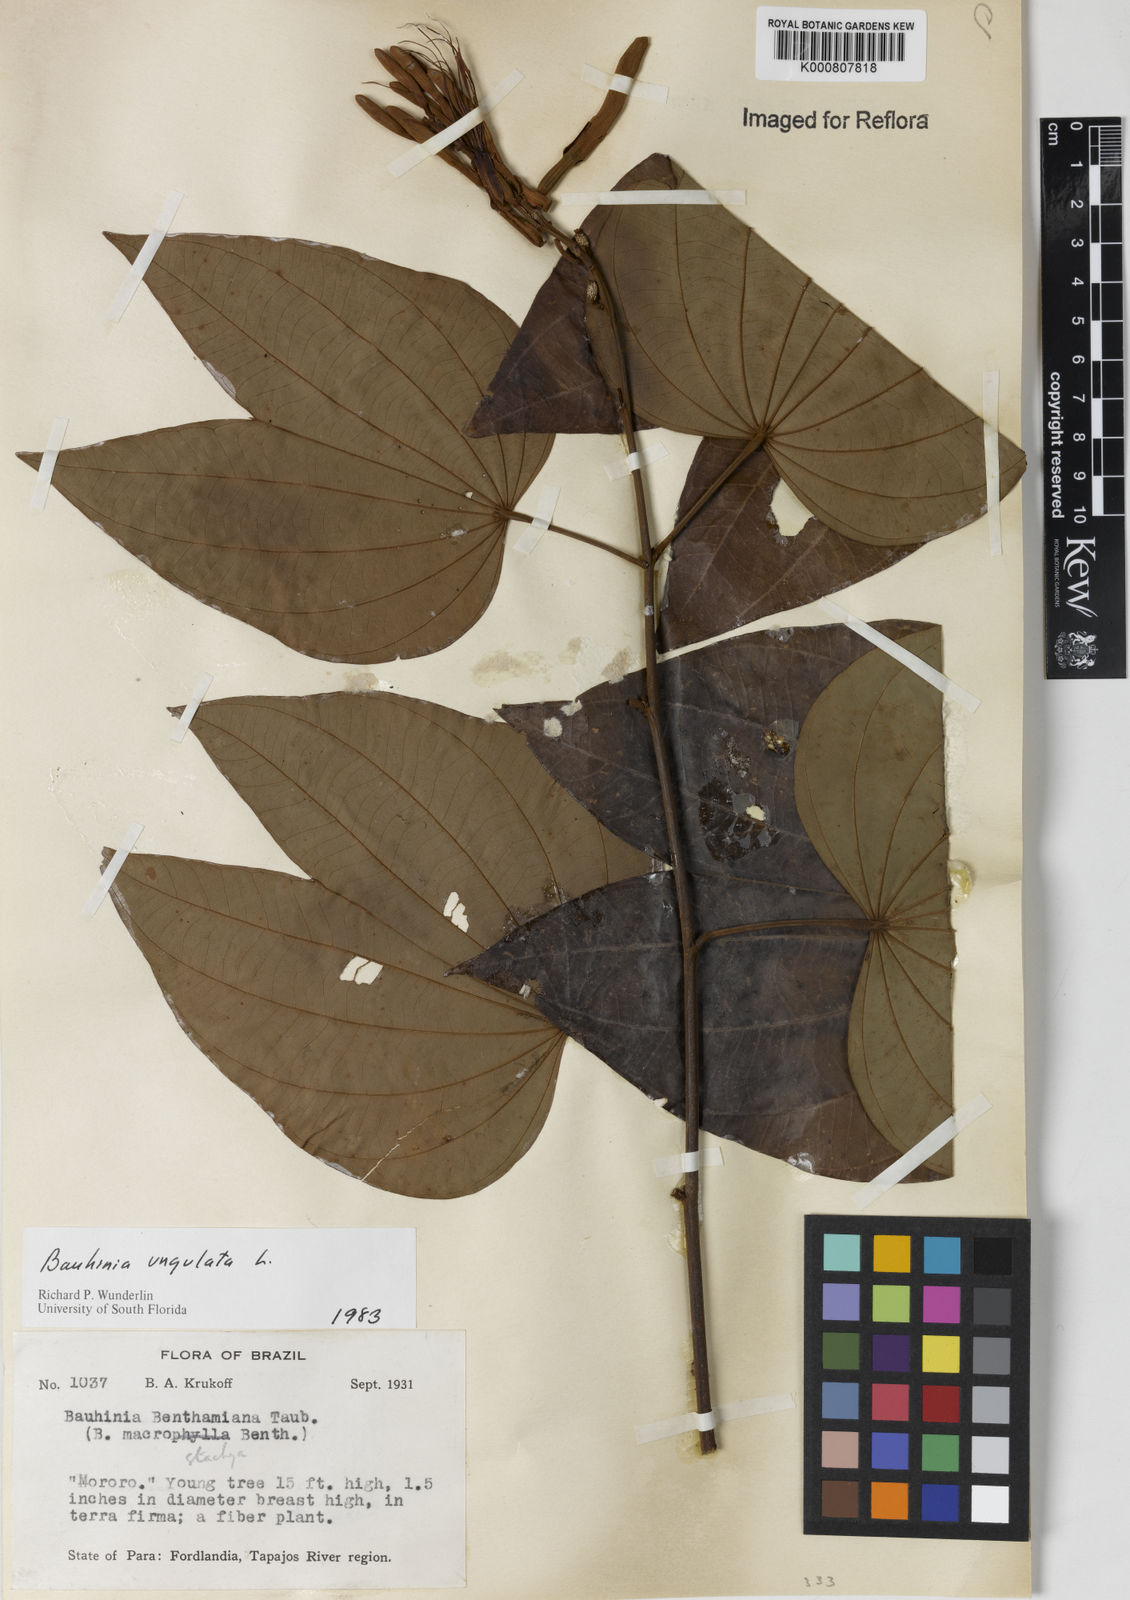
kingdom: Plantae
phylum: Tracheophyta
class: Magnoliopsida
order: Fabales
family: Fabaceae
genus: Bauhinia
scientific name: Bauhinia ungulata
